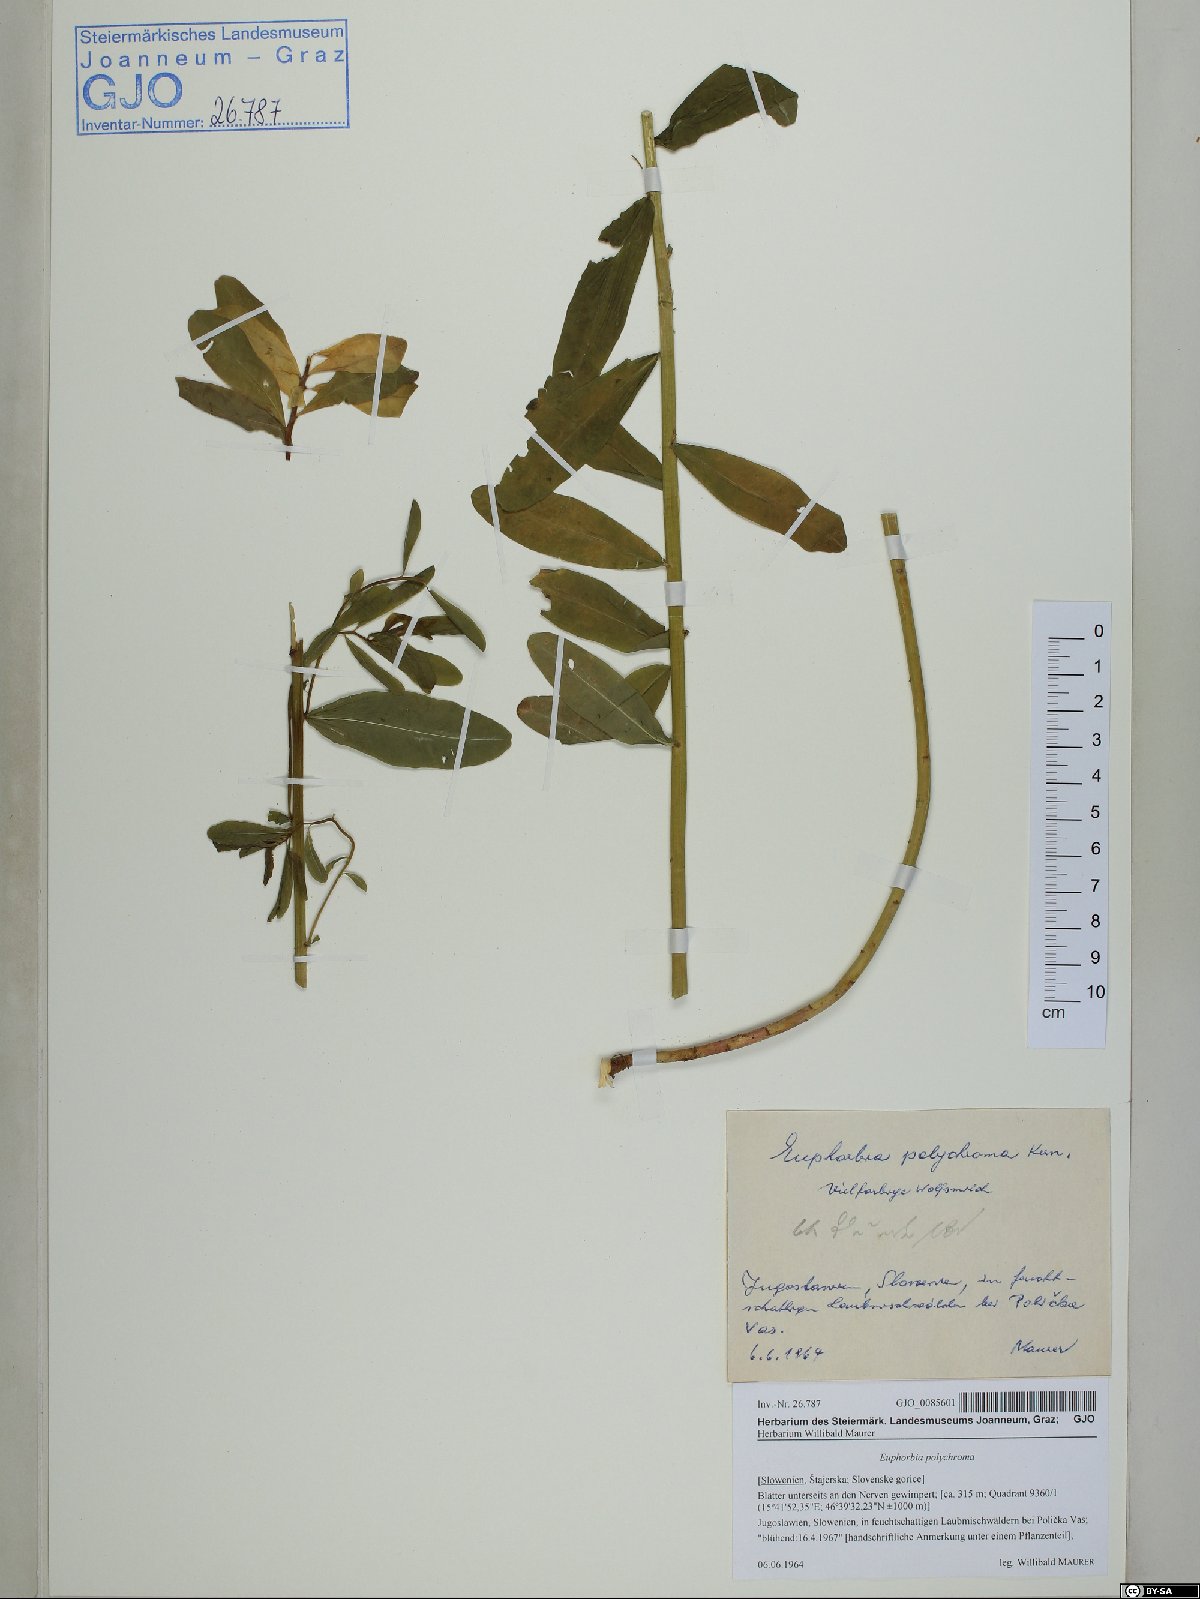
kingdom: Plantae
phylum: Tracheophyta
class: Magnoliopsida
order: Malpighiales
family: Euphorbiaceae
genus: Euphorbia
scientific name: Euphorbia epithymoides
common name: Cushion spurge
